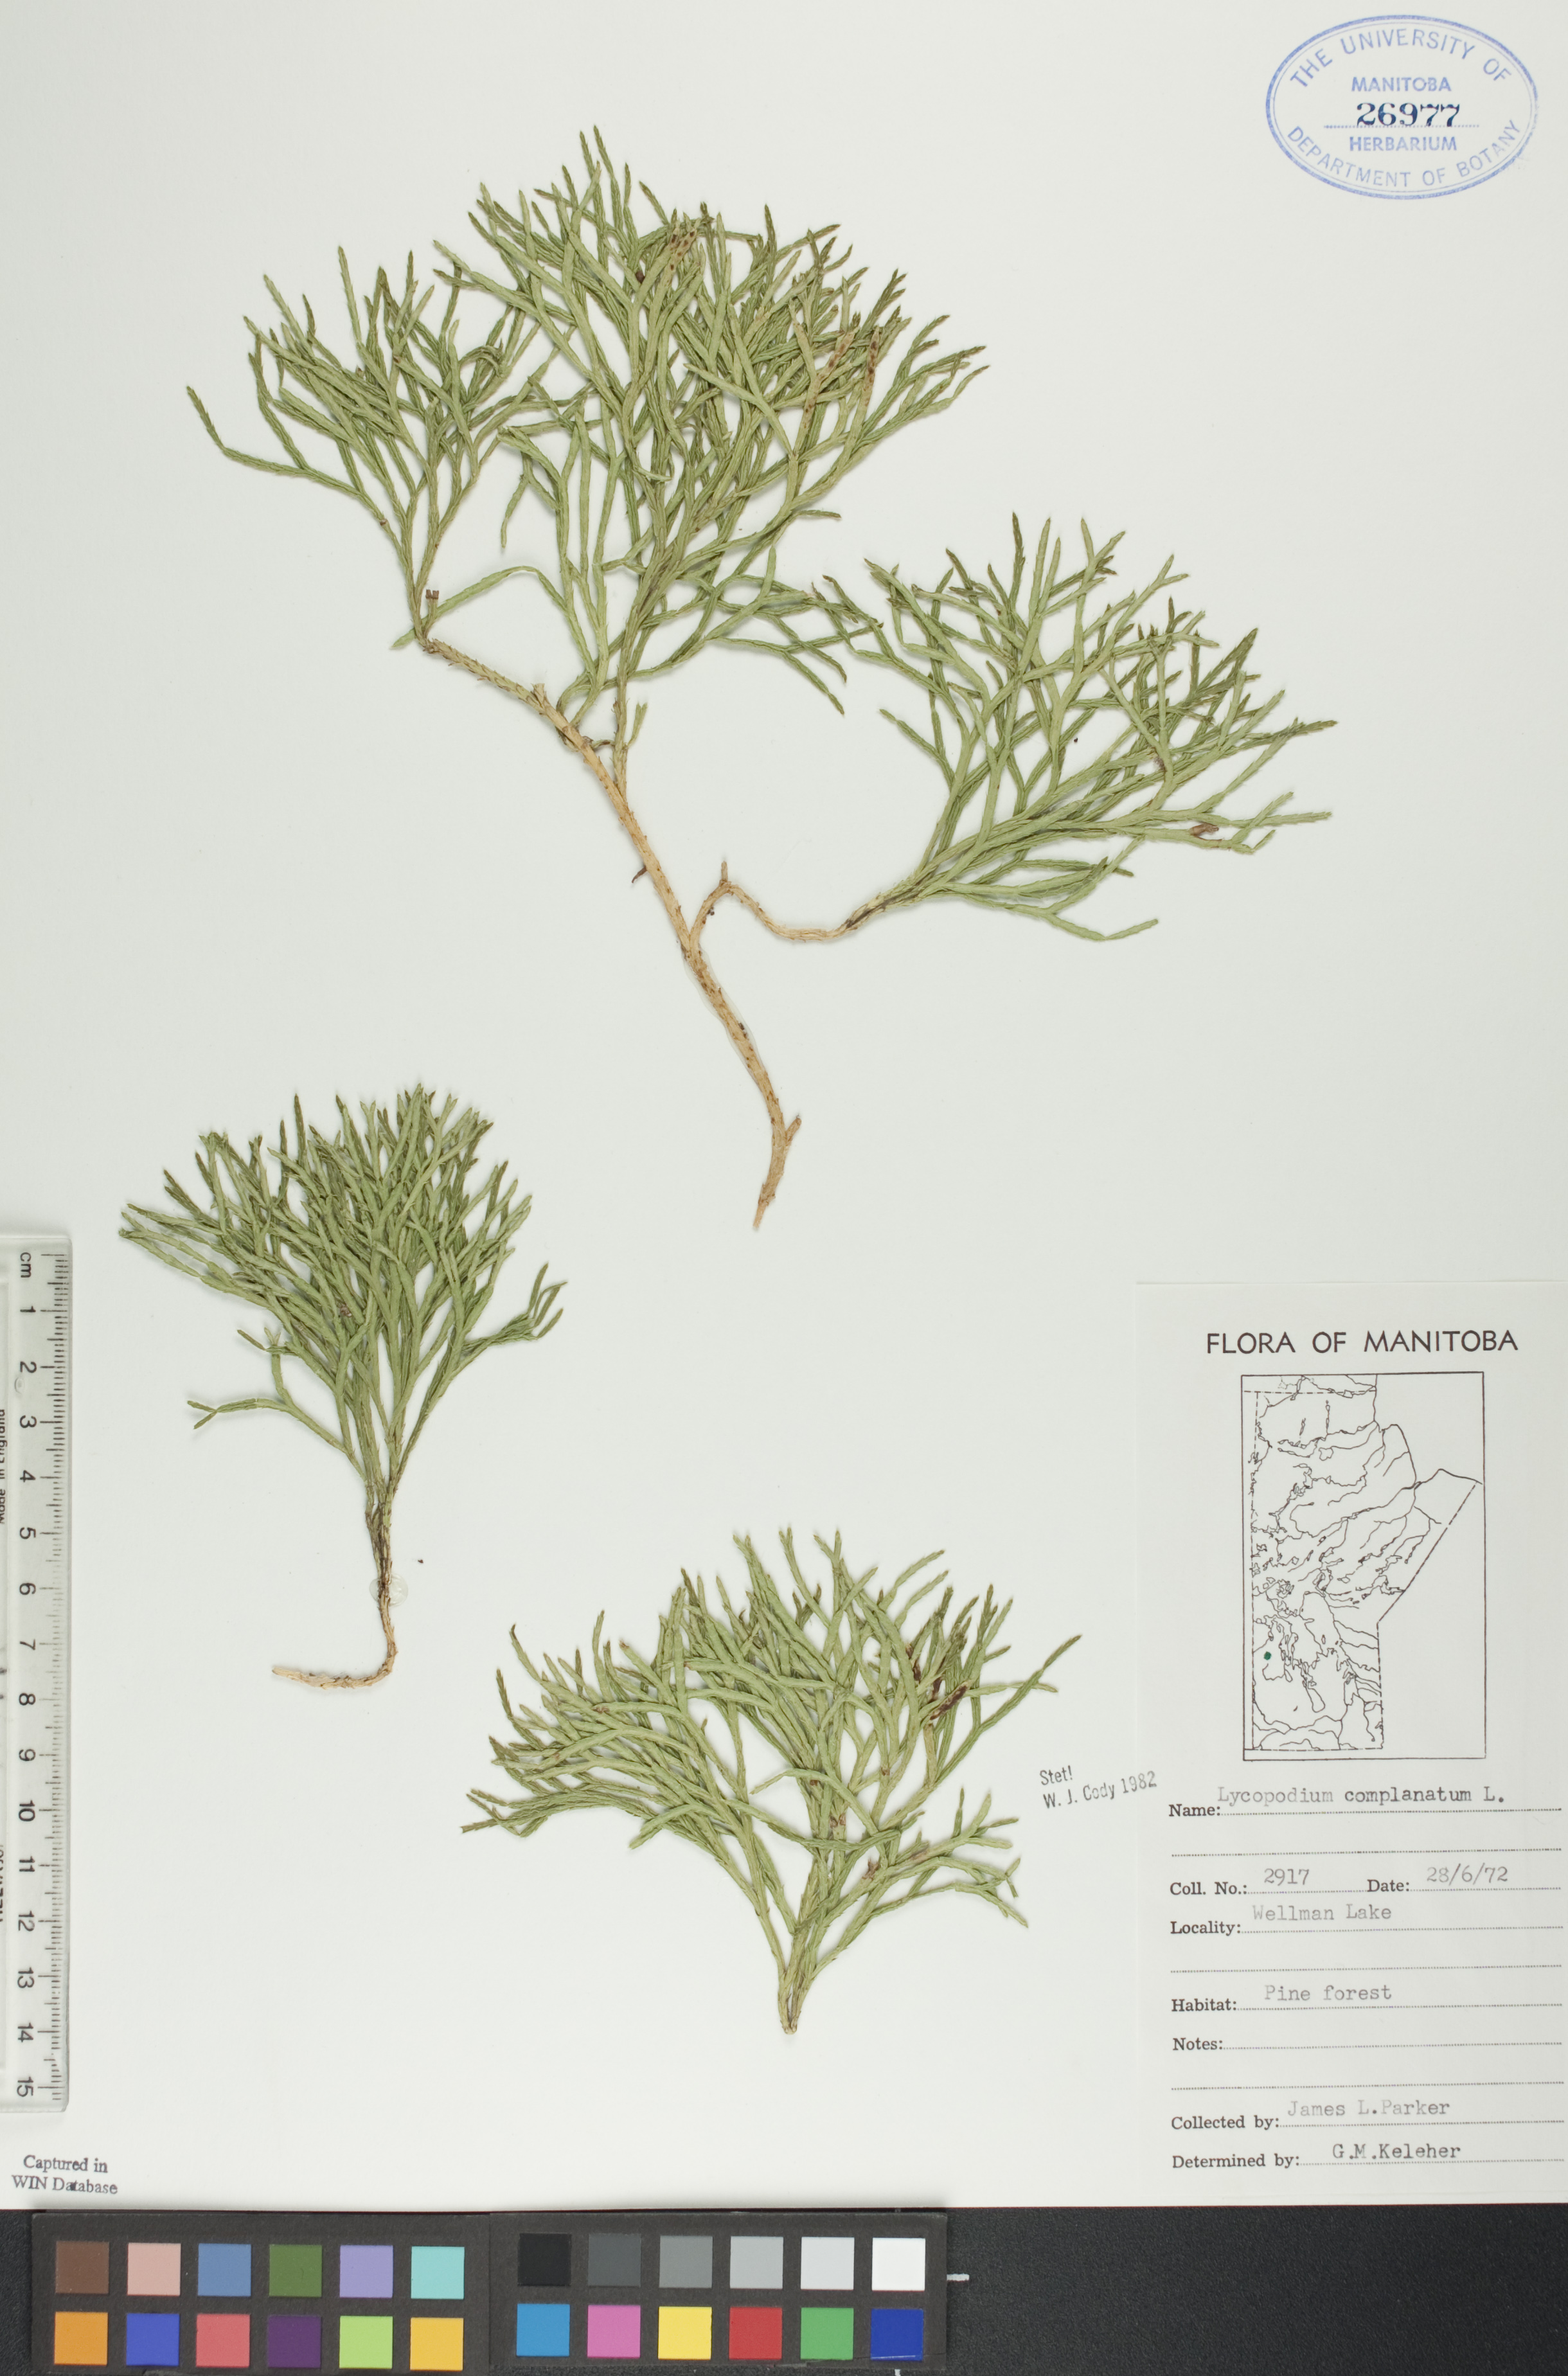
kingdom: Plantae
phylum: Tracheophyta
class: Lycopodiopsida
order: Lycopodiales
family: Lycopodiaceae
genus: Diphasiastrum
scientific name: Diphasiastrum
